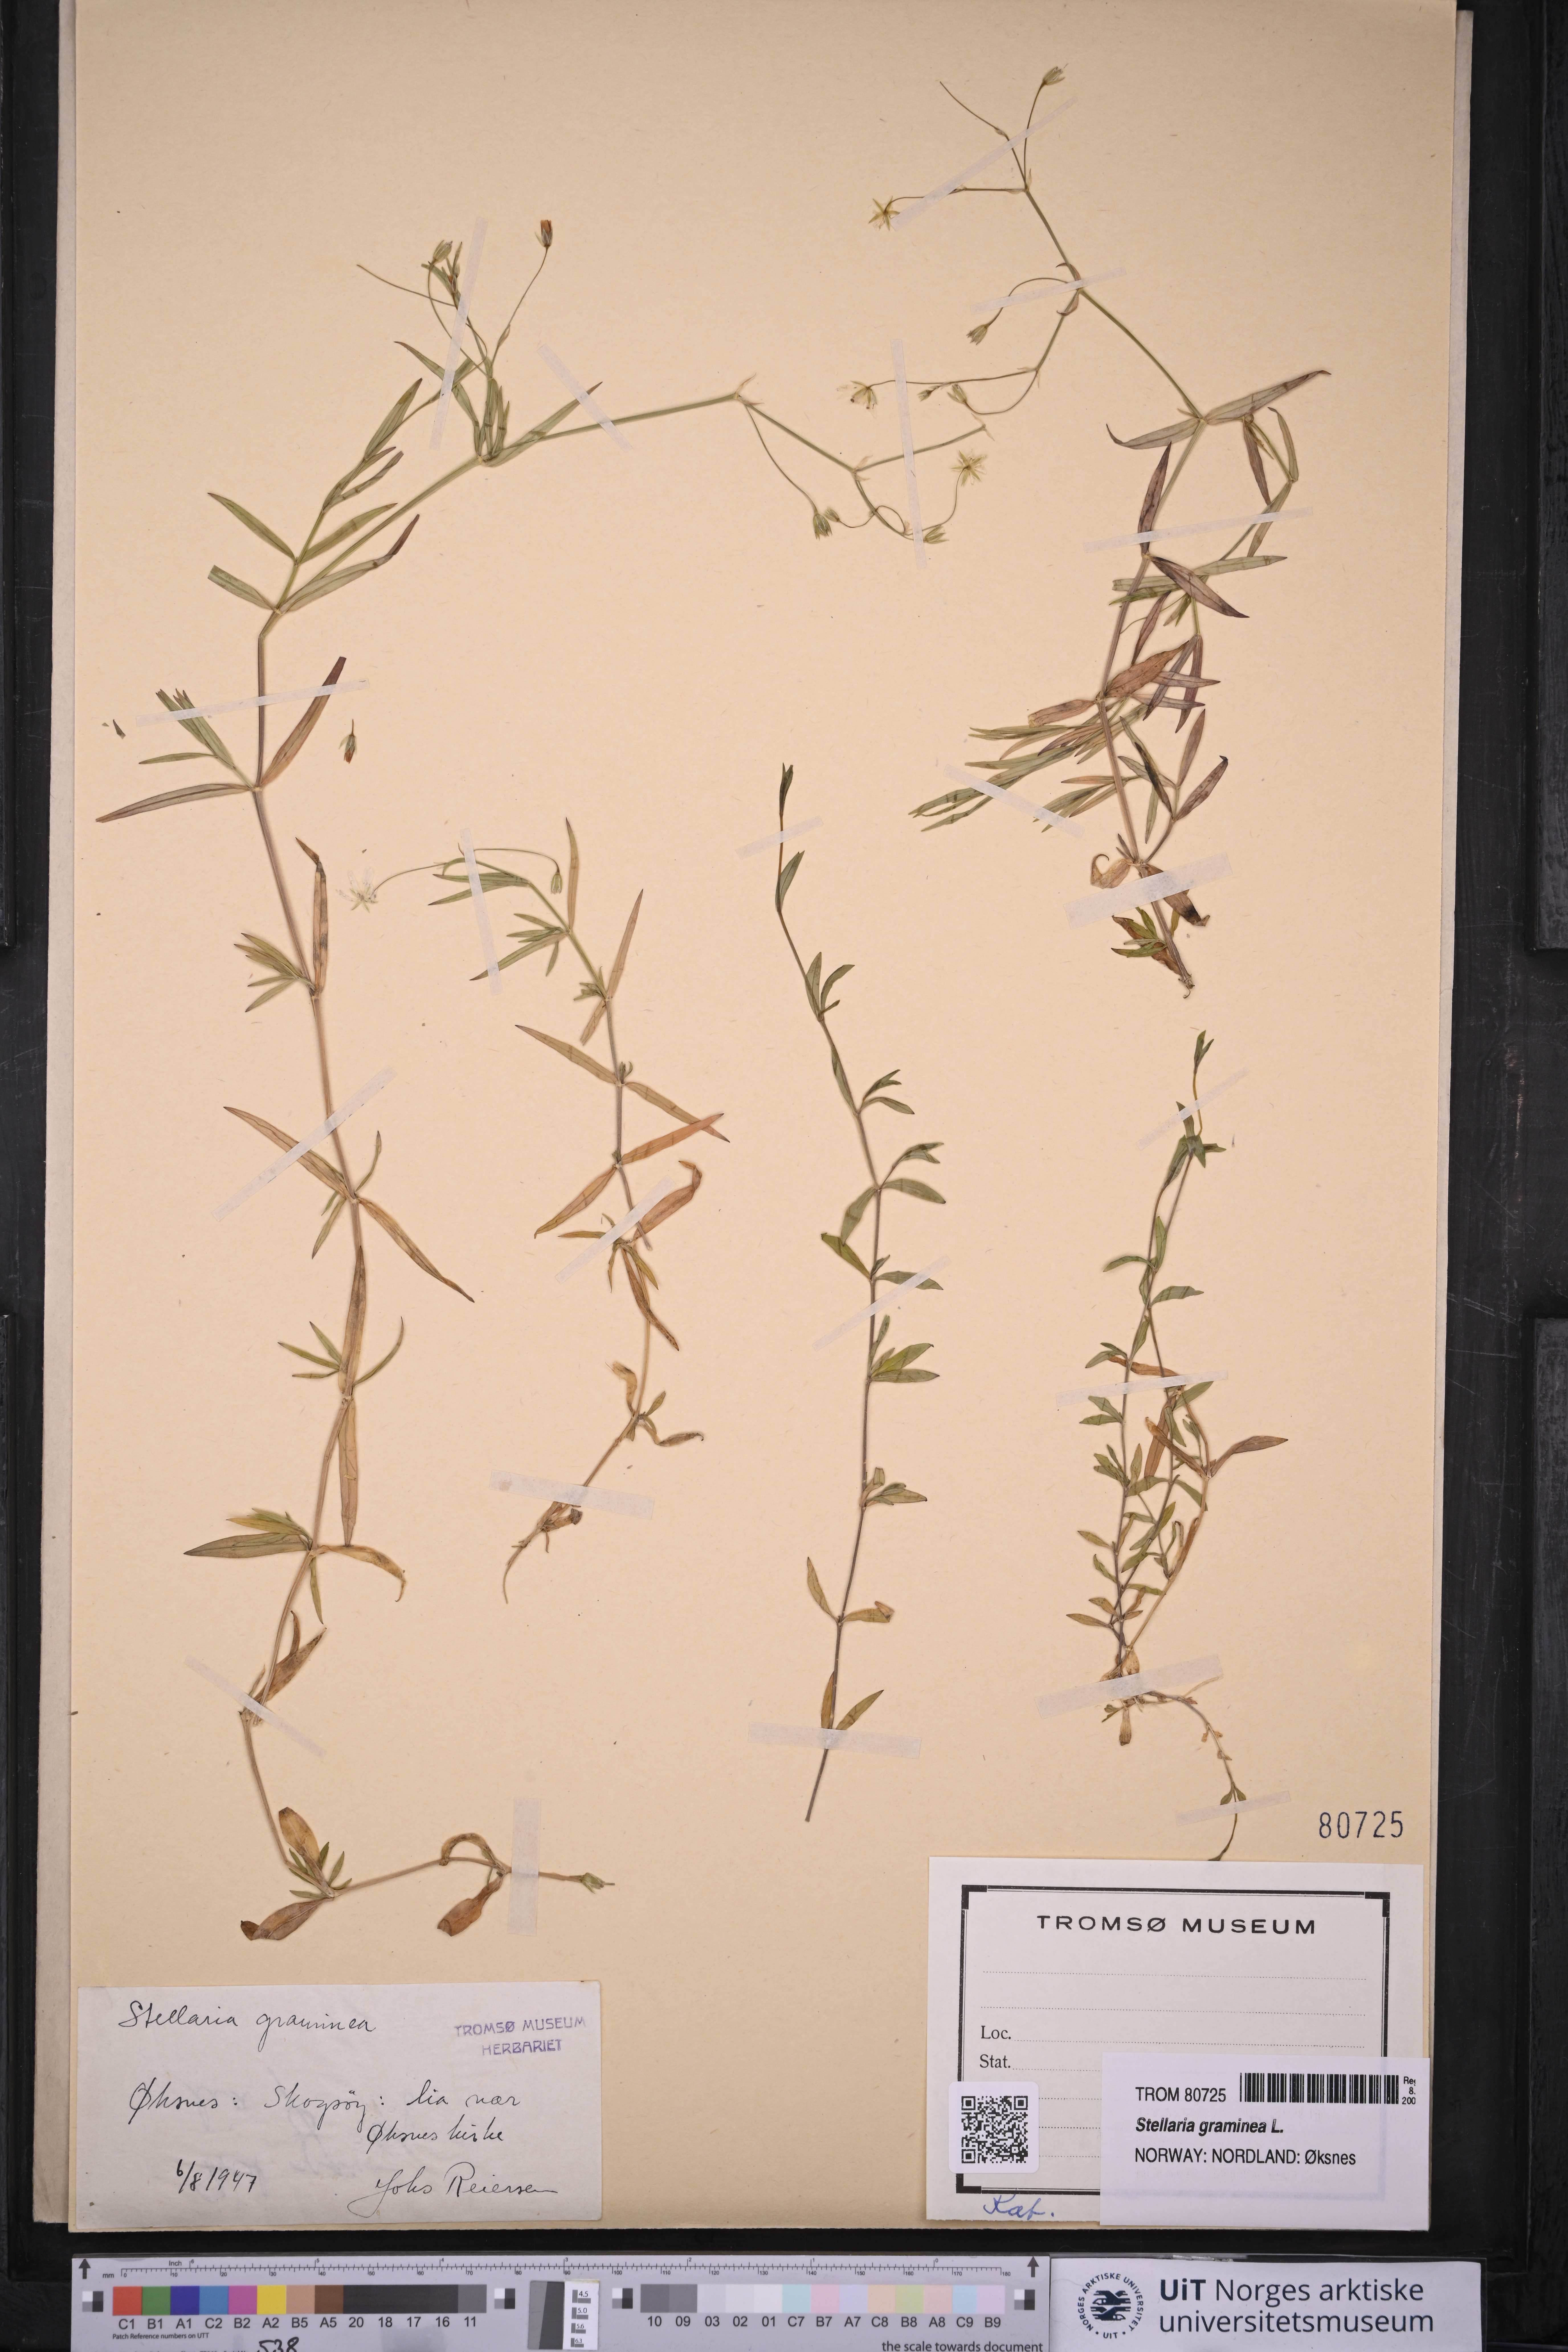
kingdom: Plantae
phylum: Tracheophyta
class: Magnoliopsida
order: Caryophyllales
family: Caryophyllaceae
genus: Stellaria
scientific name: Stellaria graminea
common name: Grass-like starwort
